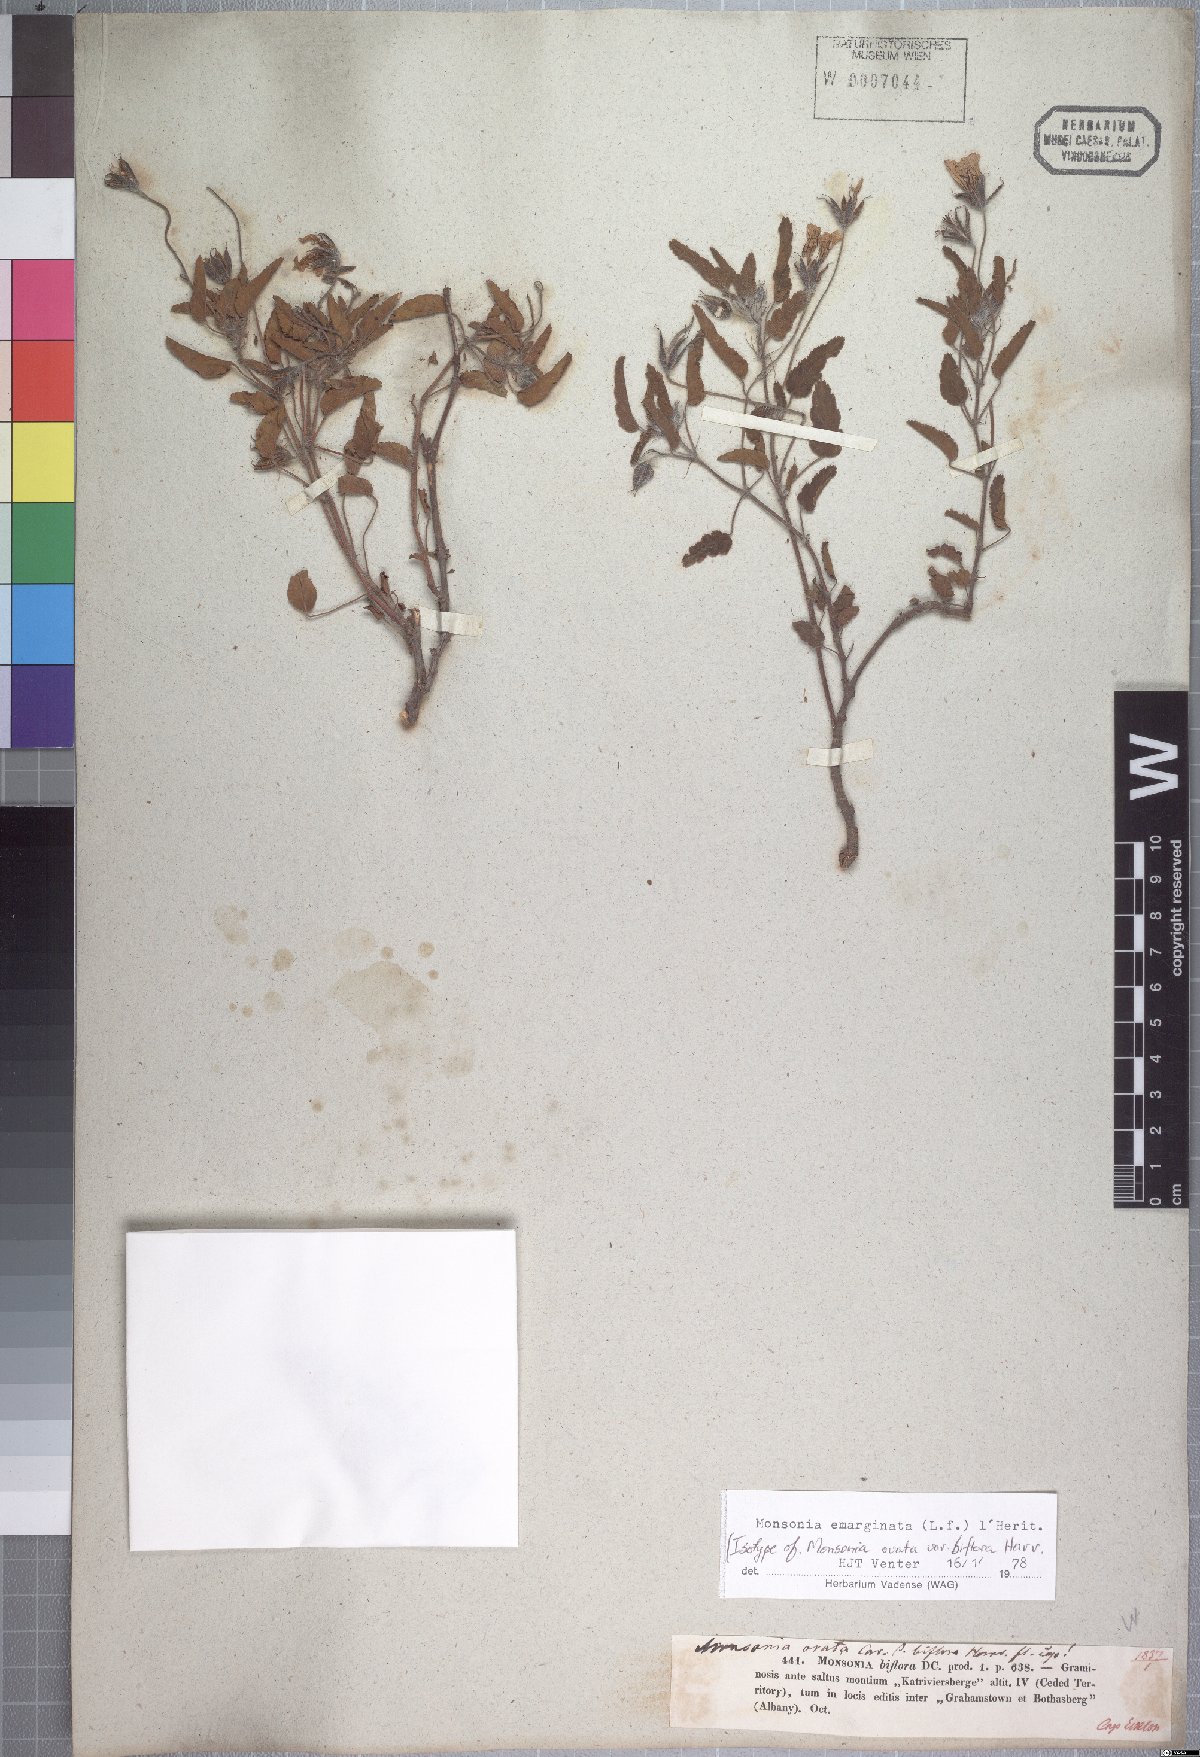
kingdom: Plantae
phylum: Tracheophyta
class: Magnoliopsida
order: Geraniales
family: Geraniaceae
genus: Monsonia
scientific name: Monsonia emarginata
